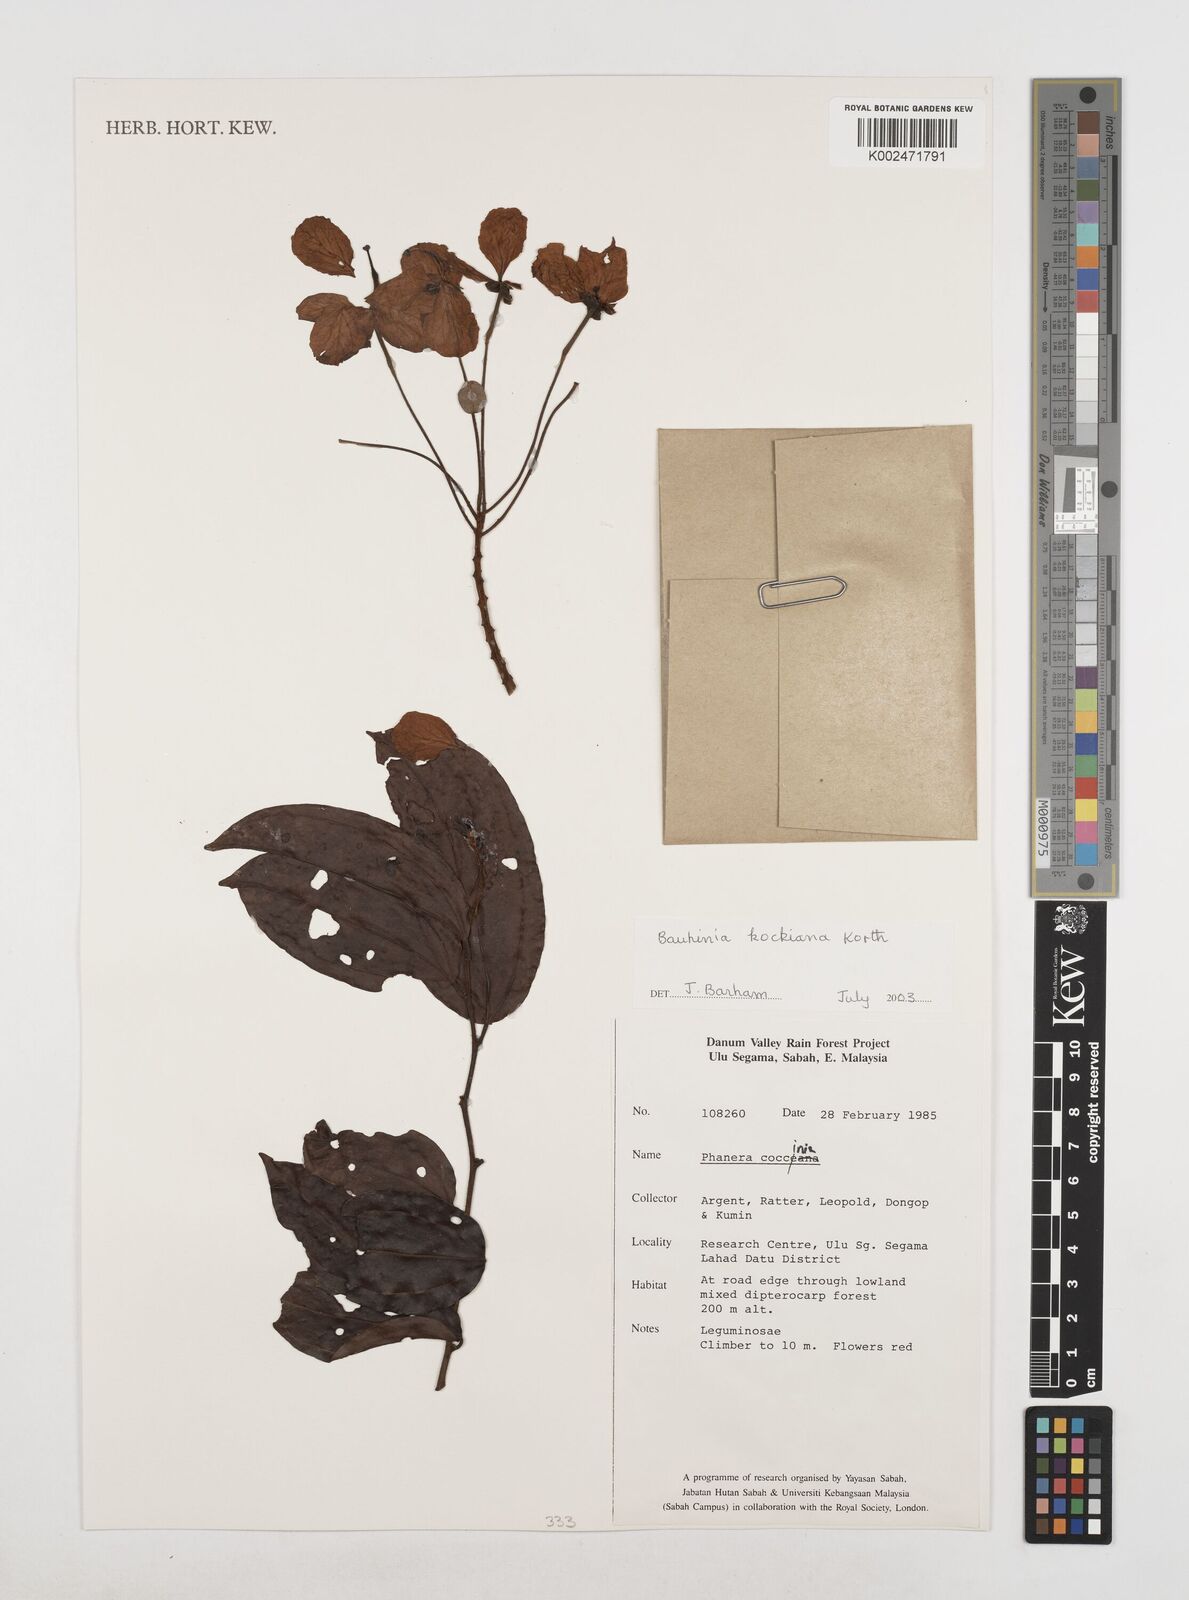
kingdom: Plantae
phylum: Tracheophyta
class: Magnoliopsida
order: Fabales
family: Fabaceae
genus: Phanera
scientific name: Phanera kockiana
